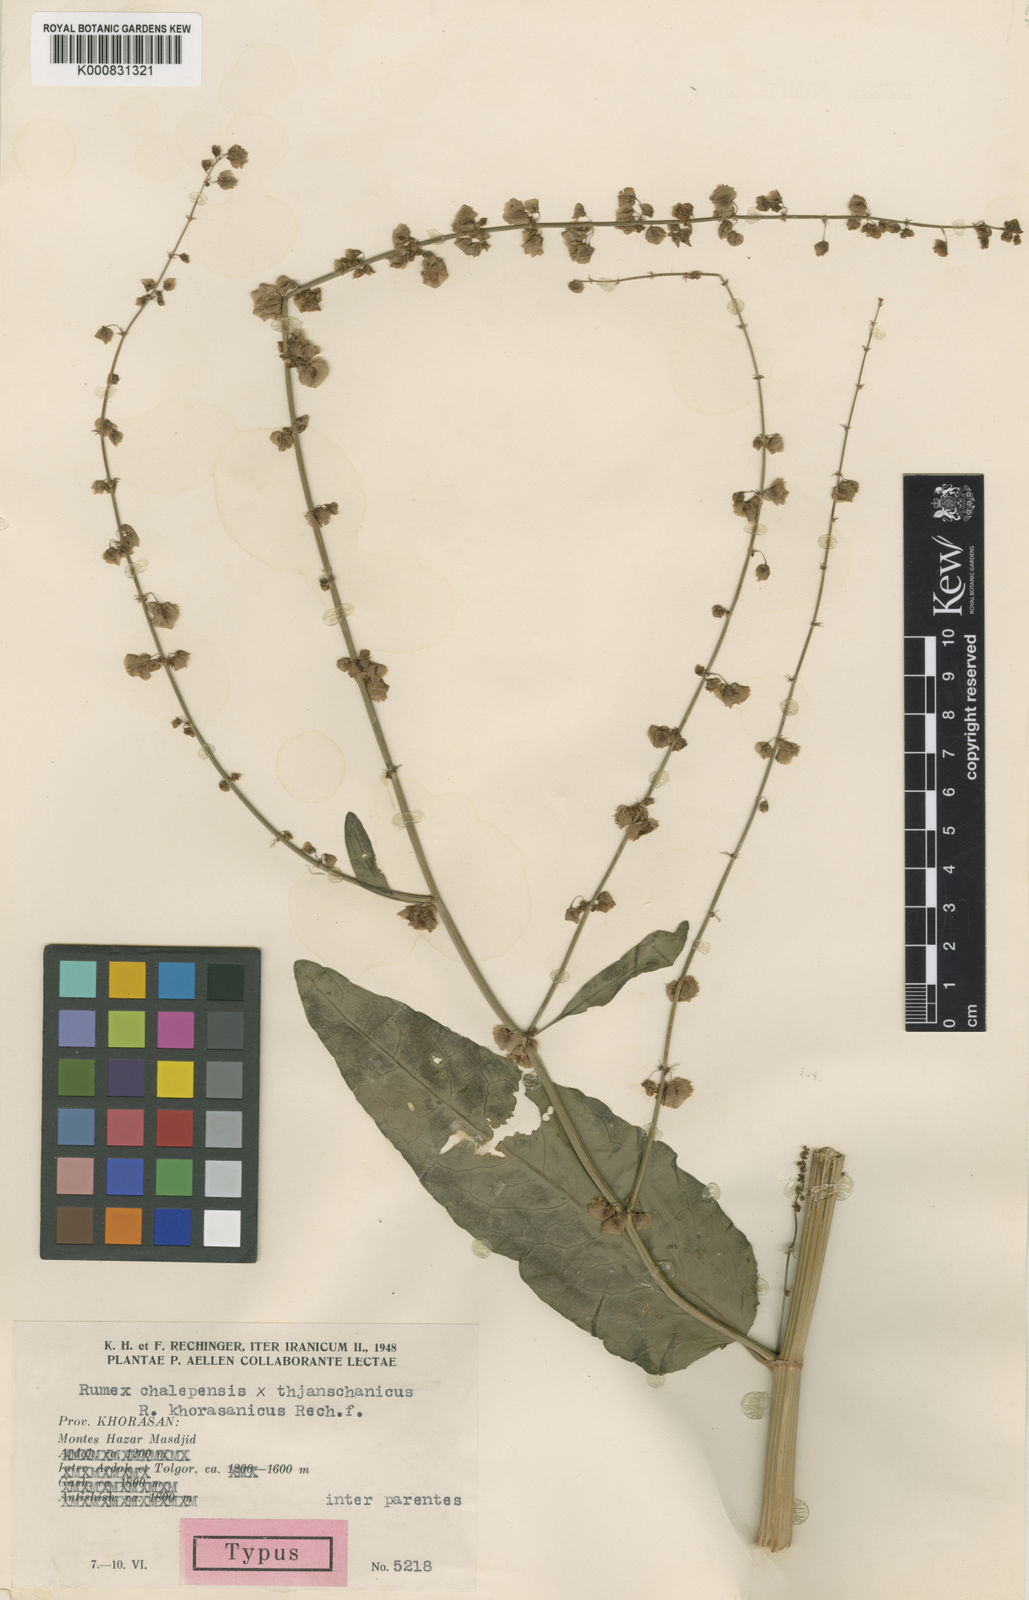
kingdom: Plantae
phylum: Tracheophyta
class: Magnoliopsida
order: Caryophyllales
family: Polygonaceae
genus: Rumex
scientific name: Rumex khorasanicus
